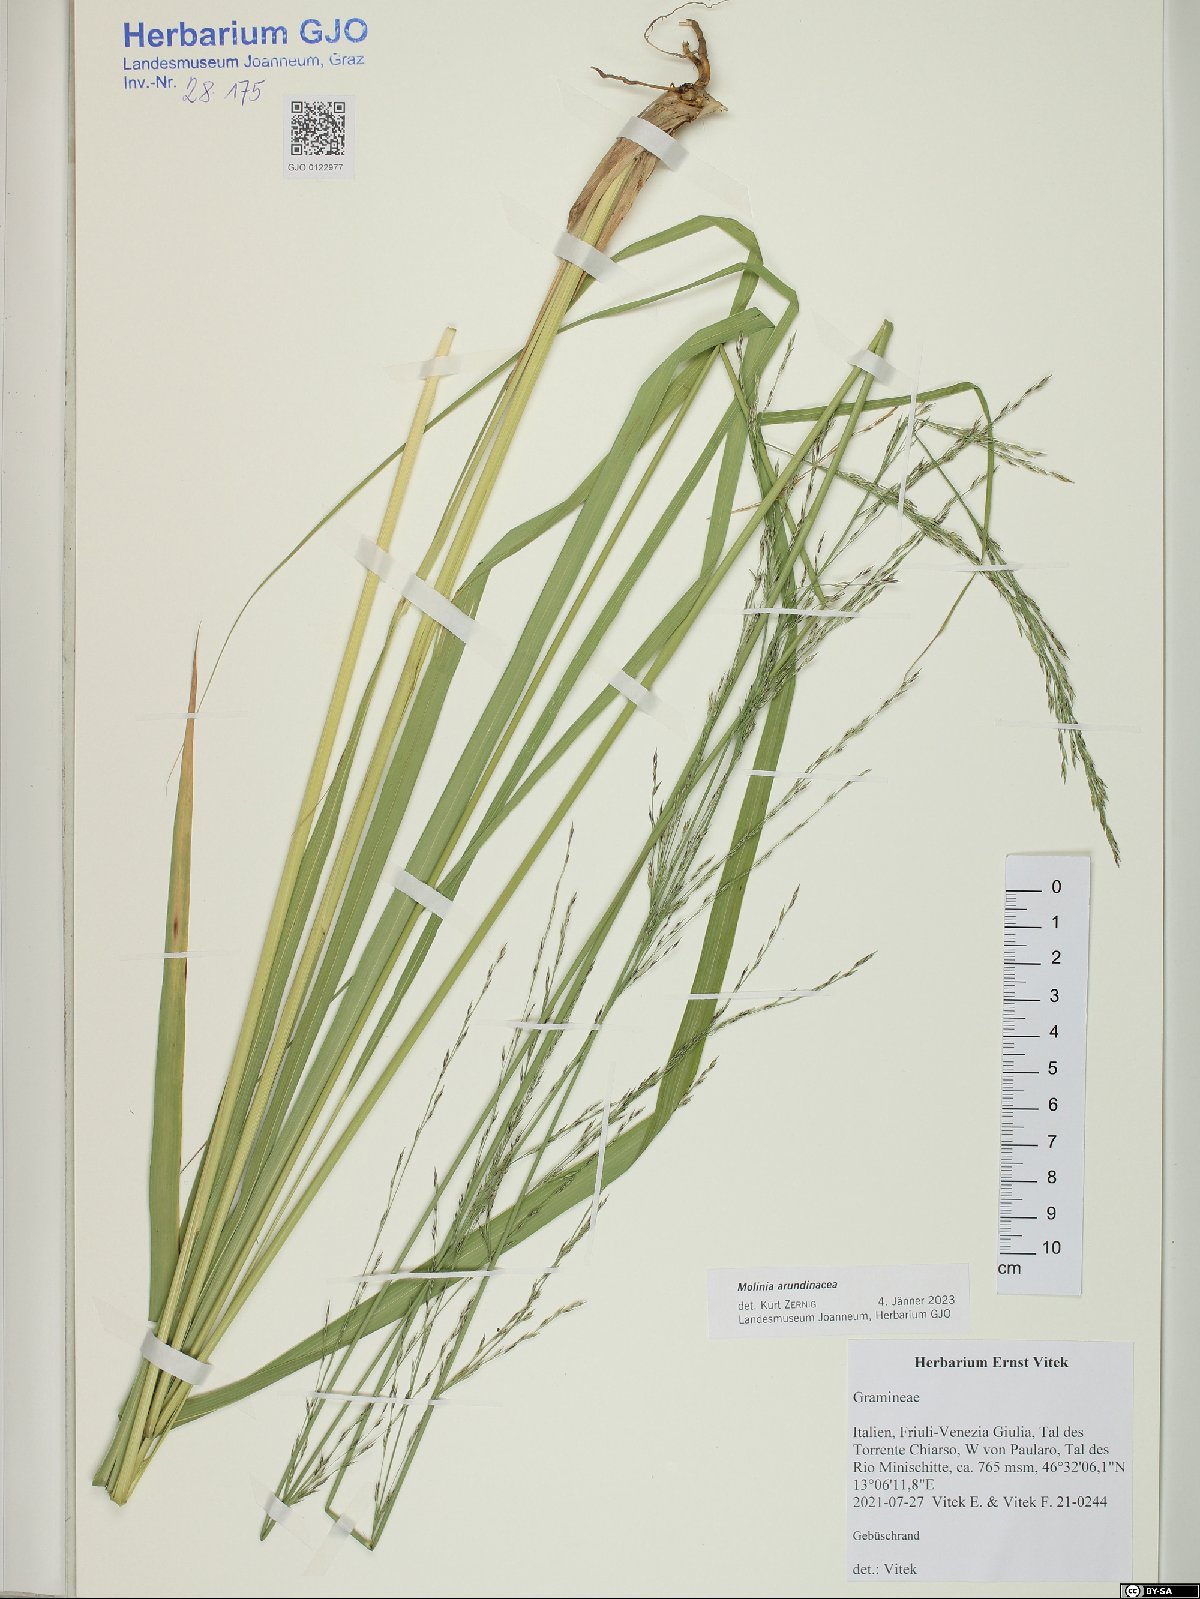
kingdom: Plantae
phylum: Tracheophyta
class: Liliopsida
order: Poales
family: Poaceae
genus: Molinia
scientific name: Molinia arundinacea
